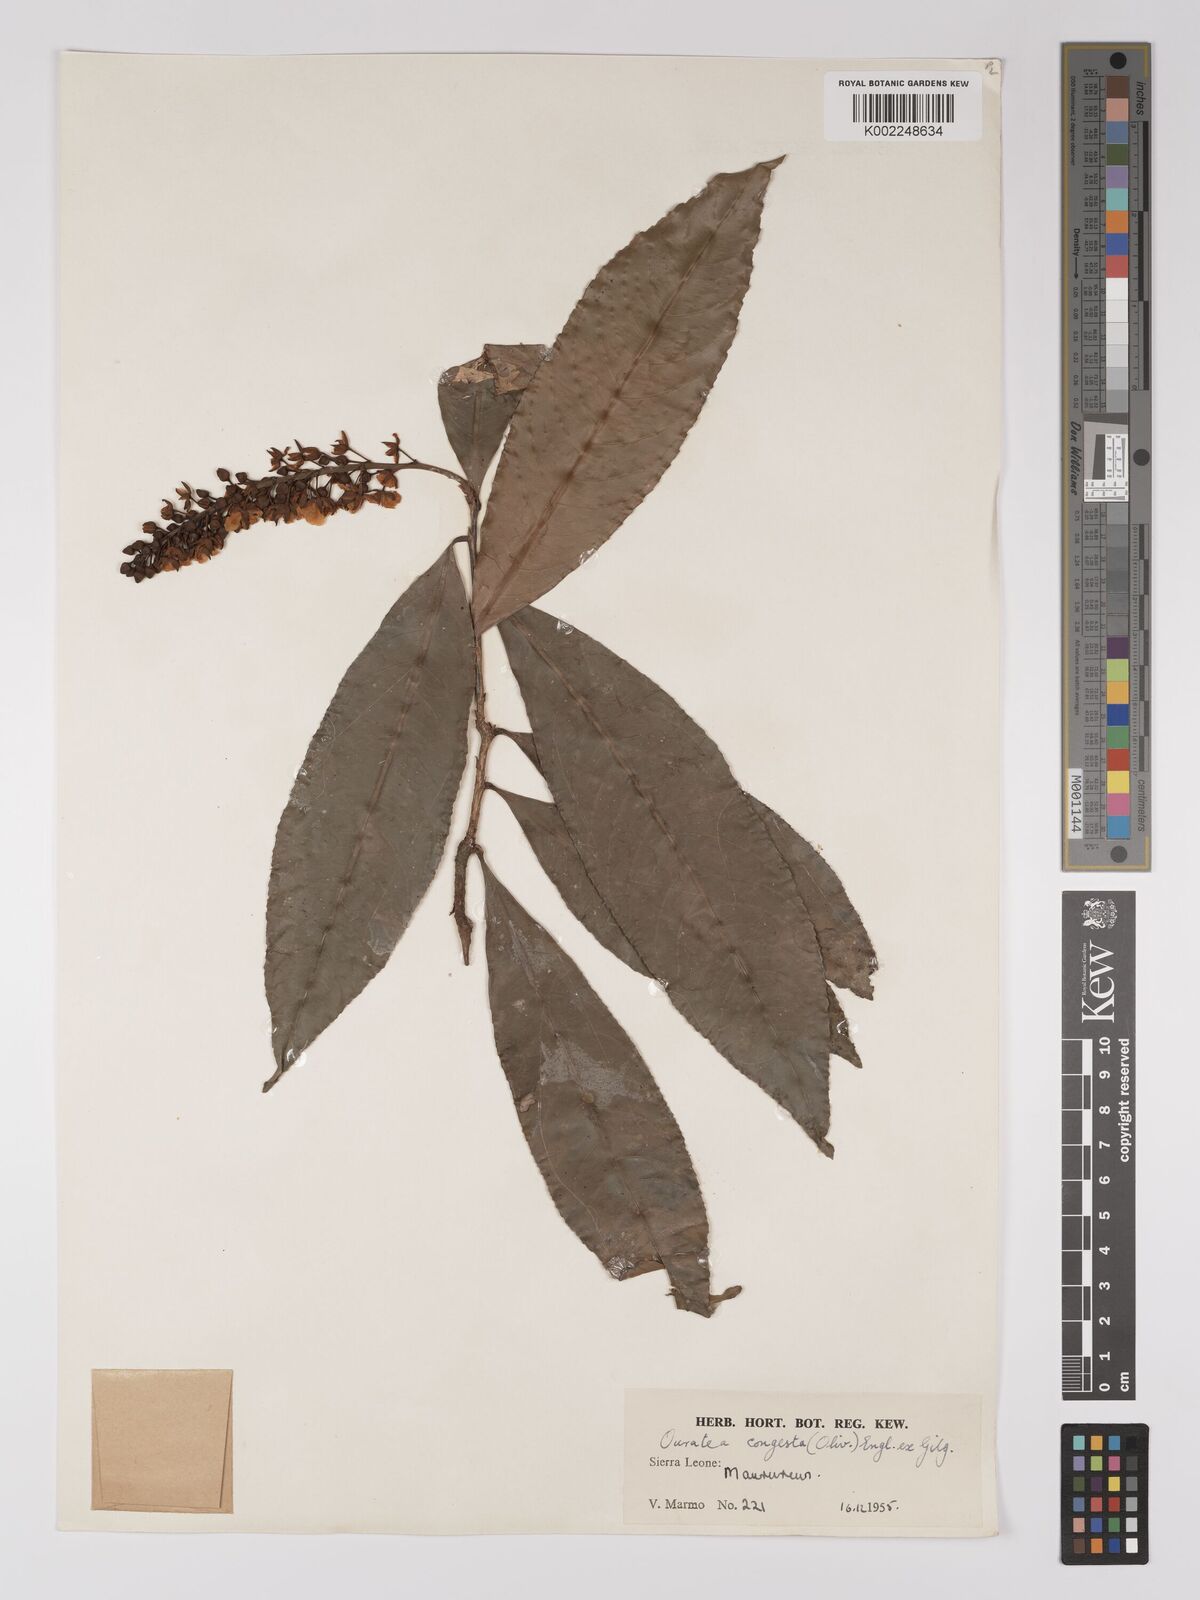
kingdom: Plantae
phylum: Tracheophyta
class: Magnoliopsida
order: Malpighiales
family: Ochnaceae
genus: Campylospermum
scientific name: Campylospermum congestum
